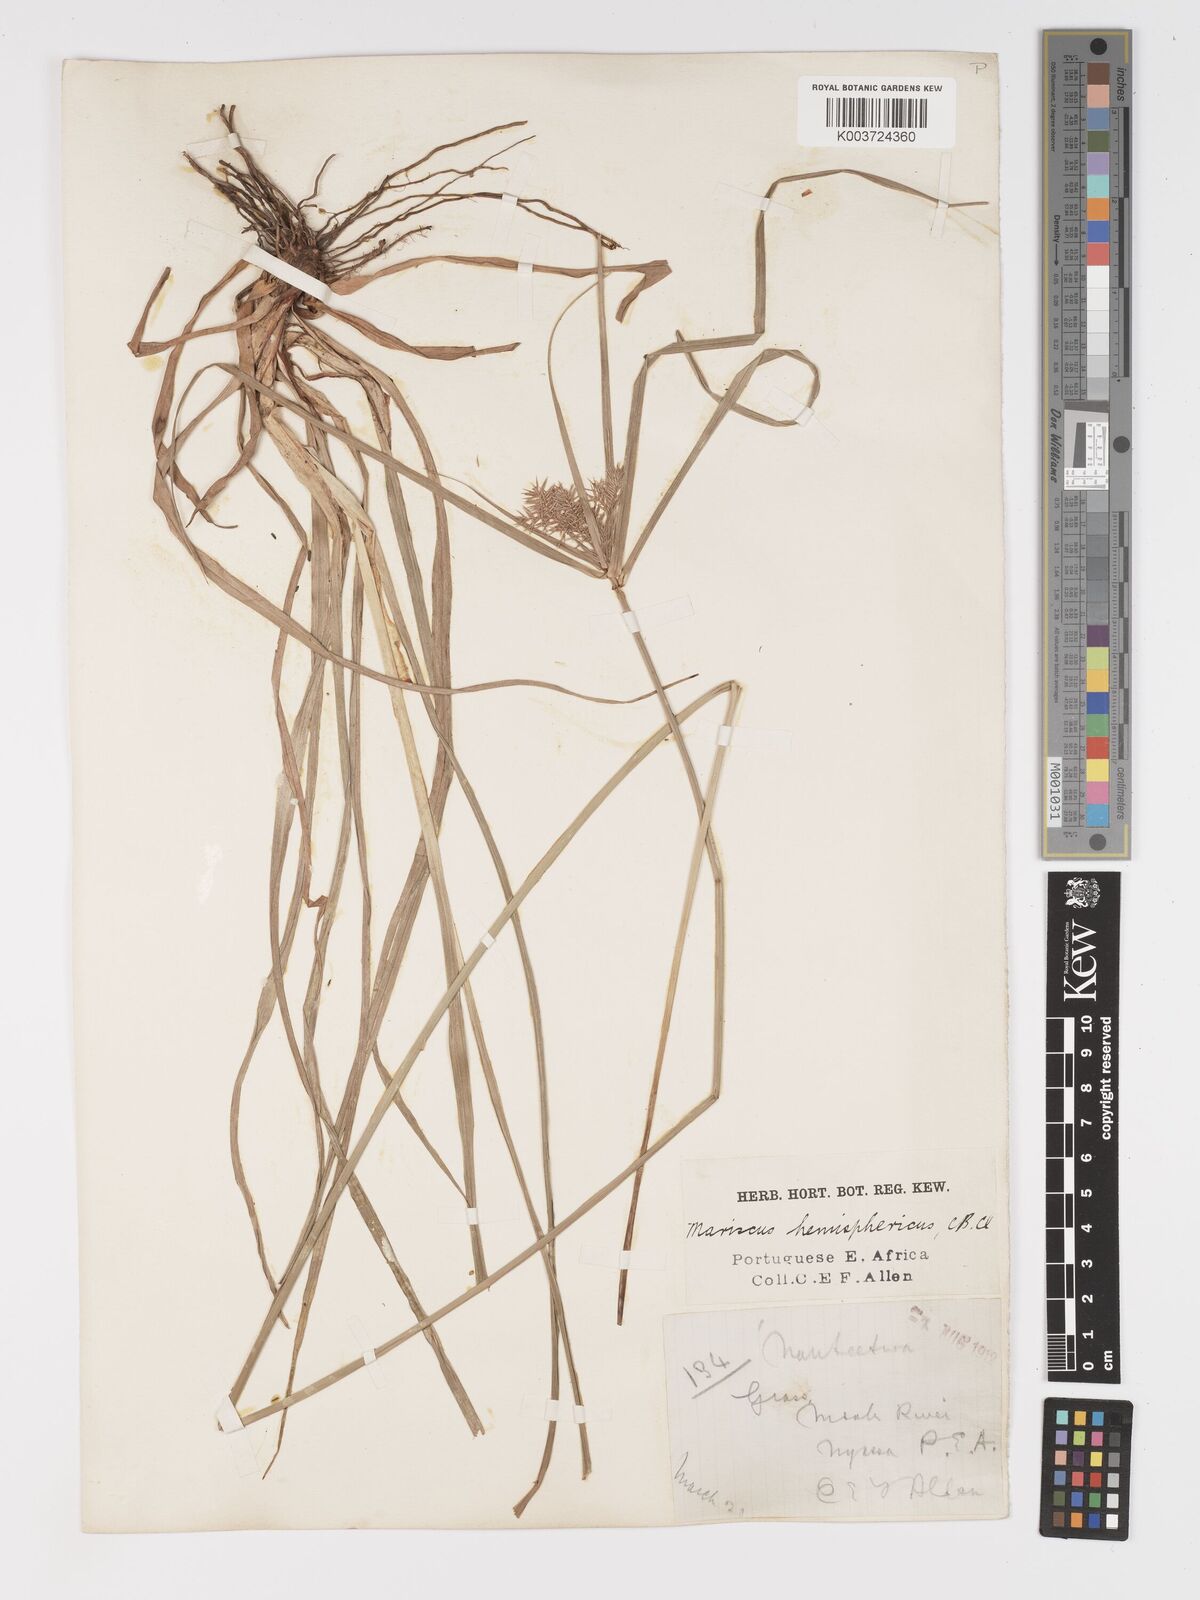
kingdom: Plantae
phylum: Tracheophyta
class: Liliopsida
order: Poales
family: Cyperaceae
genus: Cyperus
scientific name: Cyperus hemisphaericus
